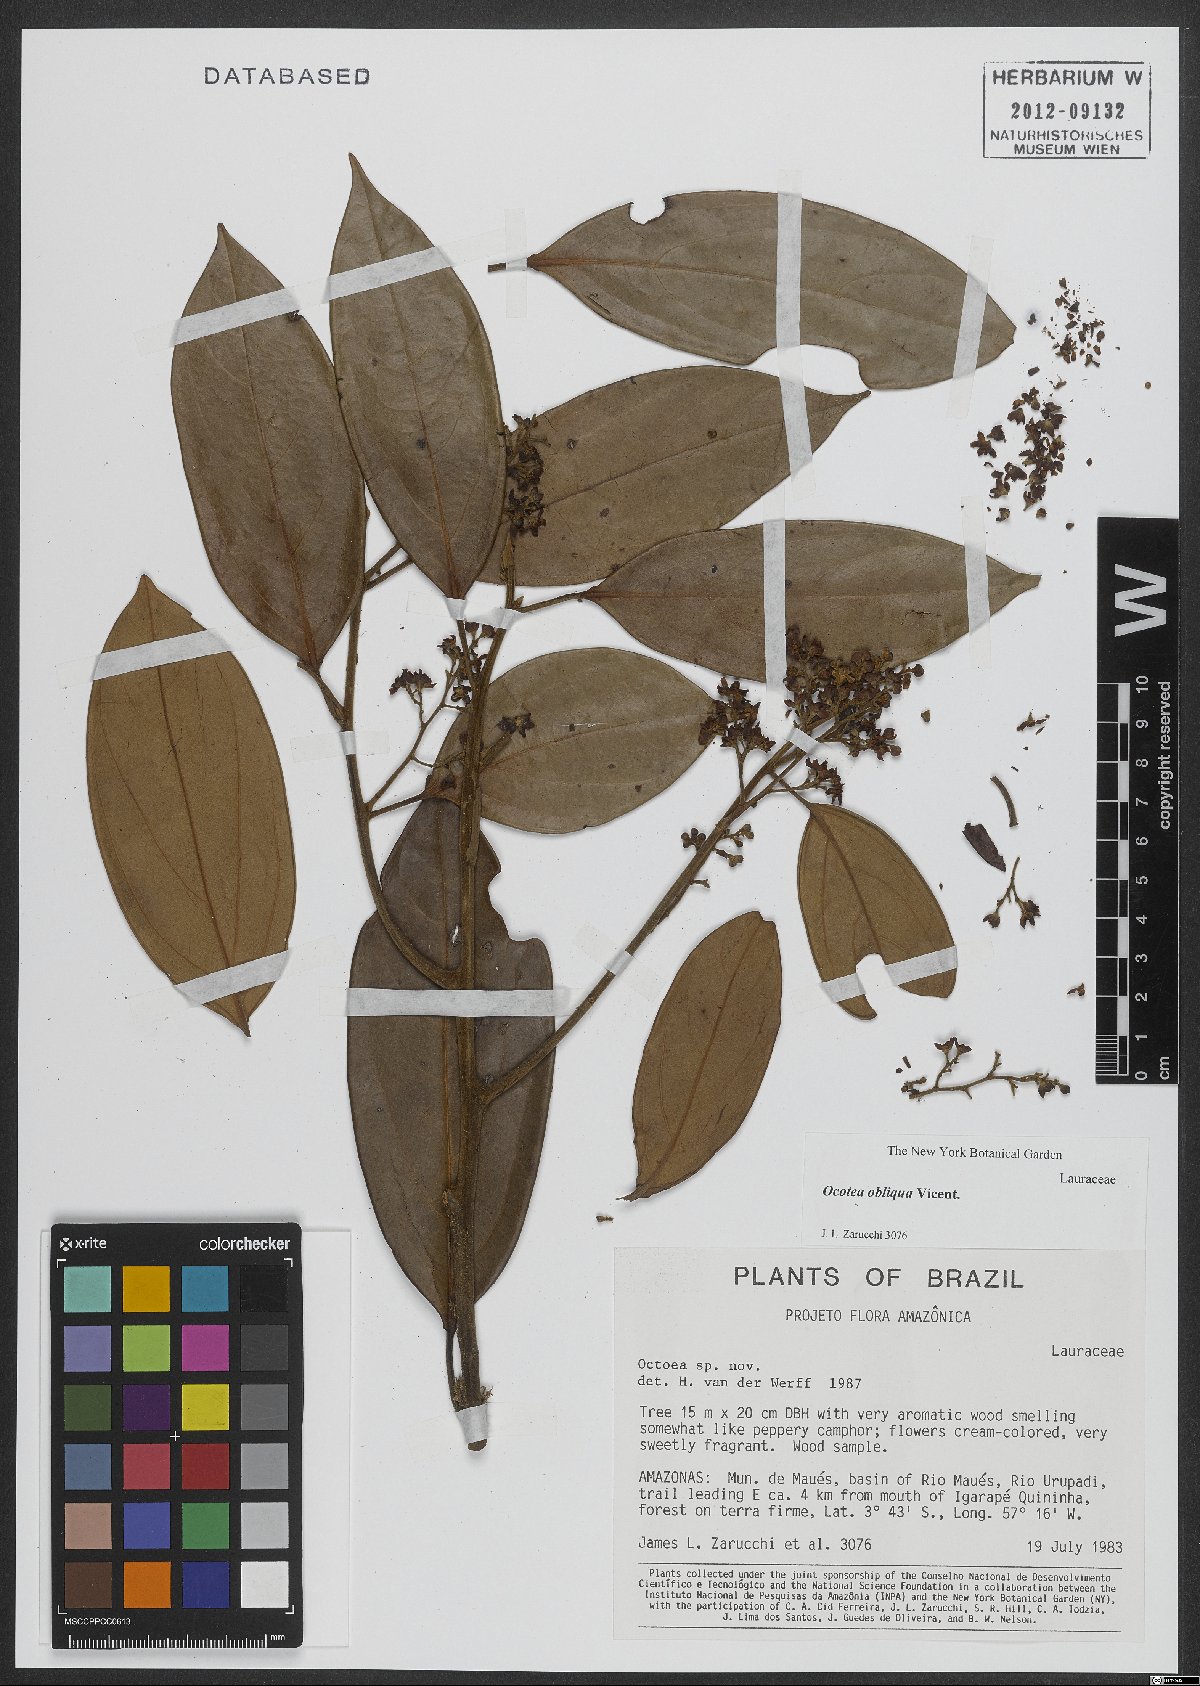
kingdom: Plantae
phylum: Tracheophyta
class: Magnoliopsida
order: Laurales
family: Lauraceae
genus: Ocotea
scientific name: Ocotea obliqua
